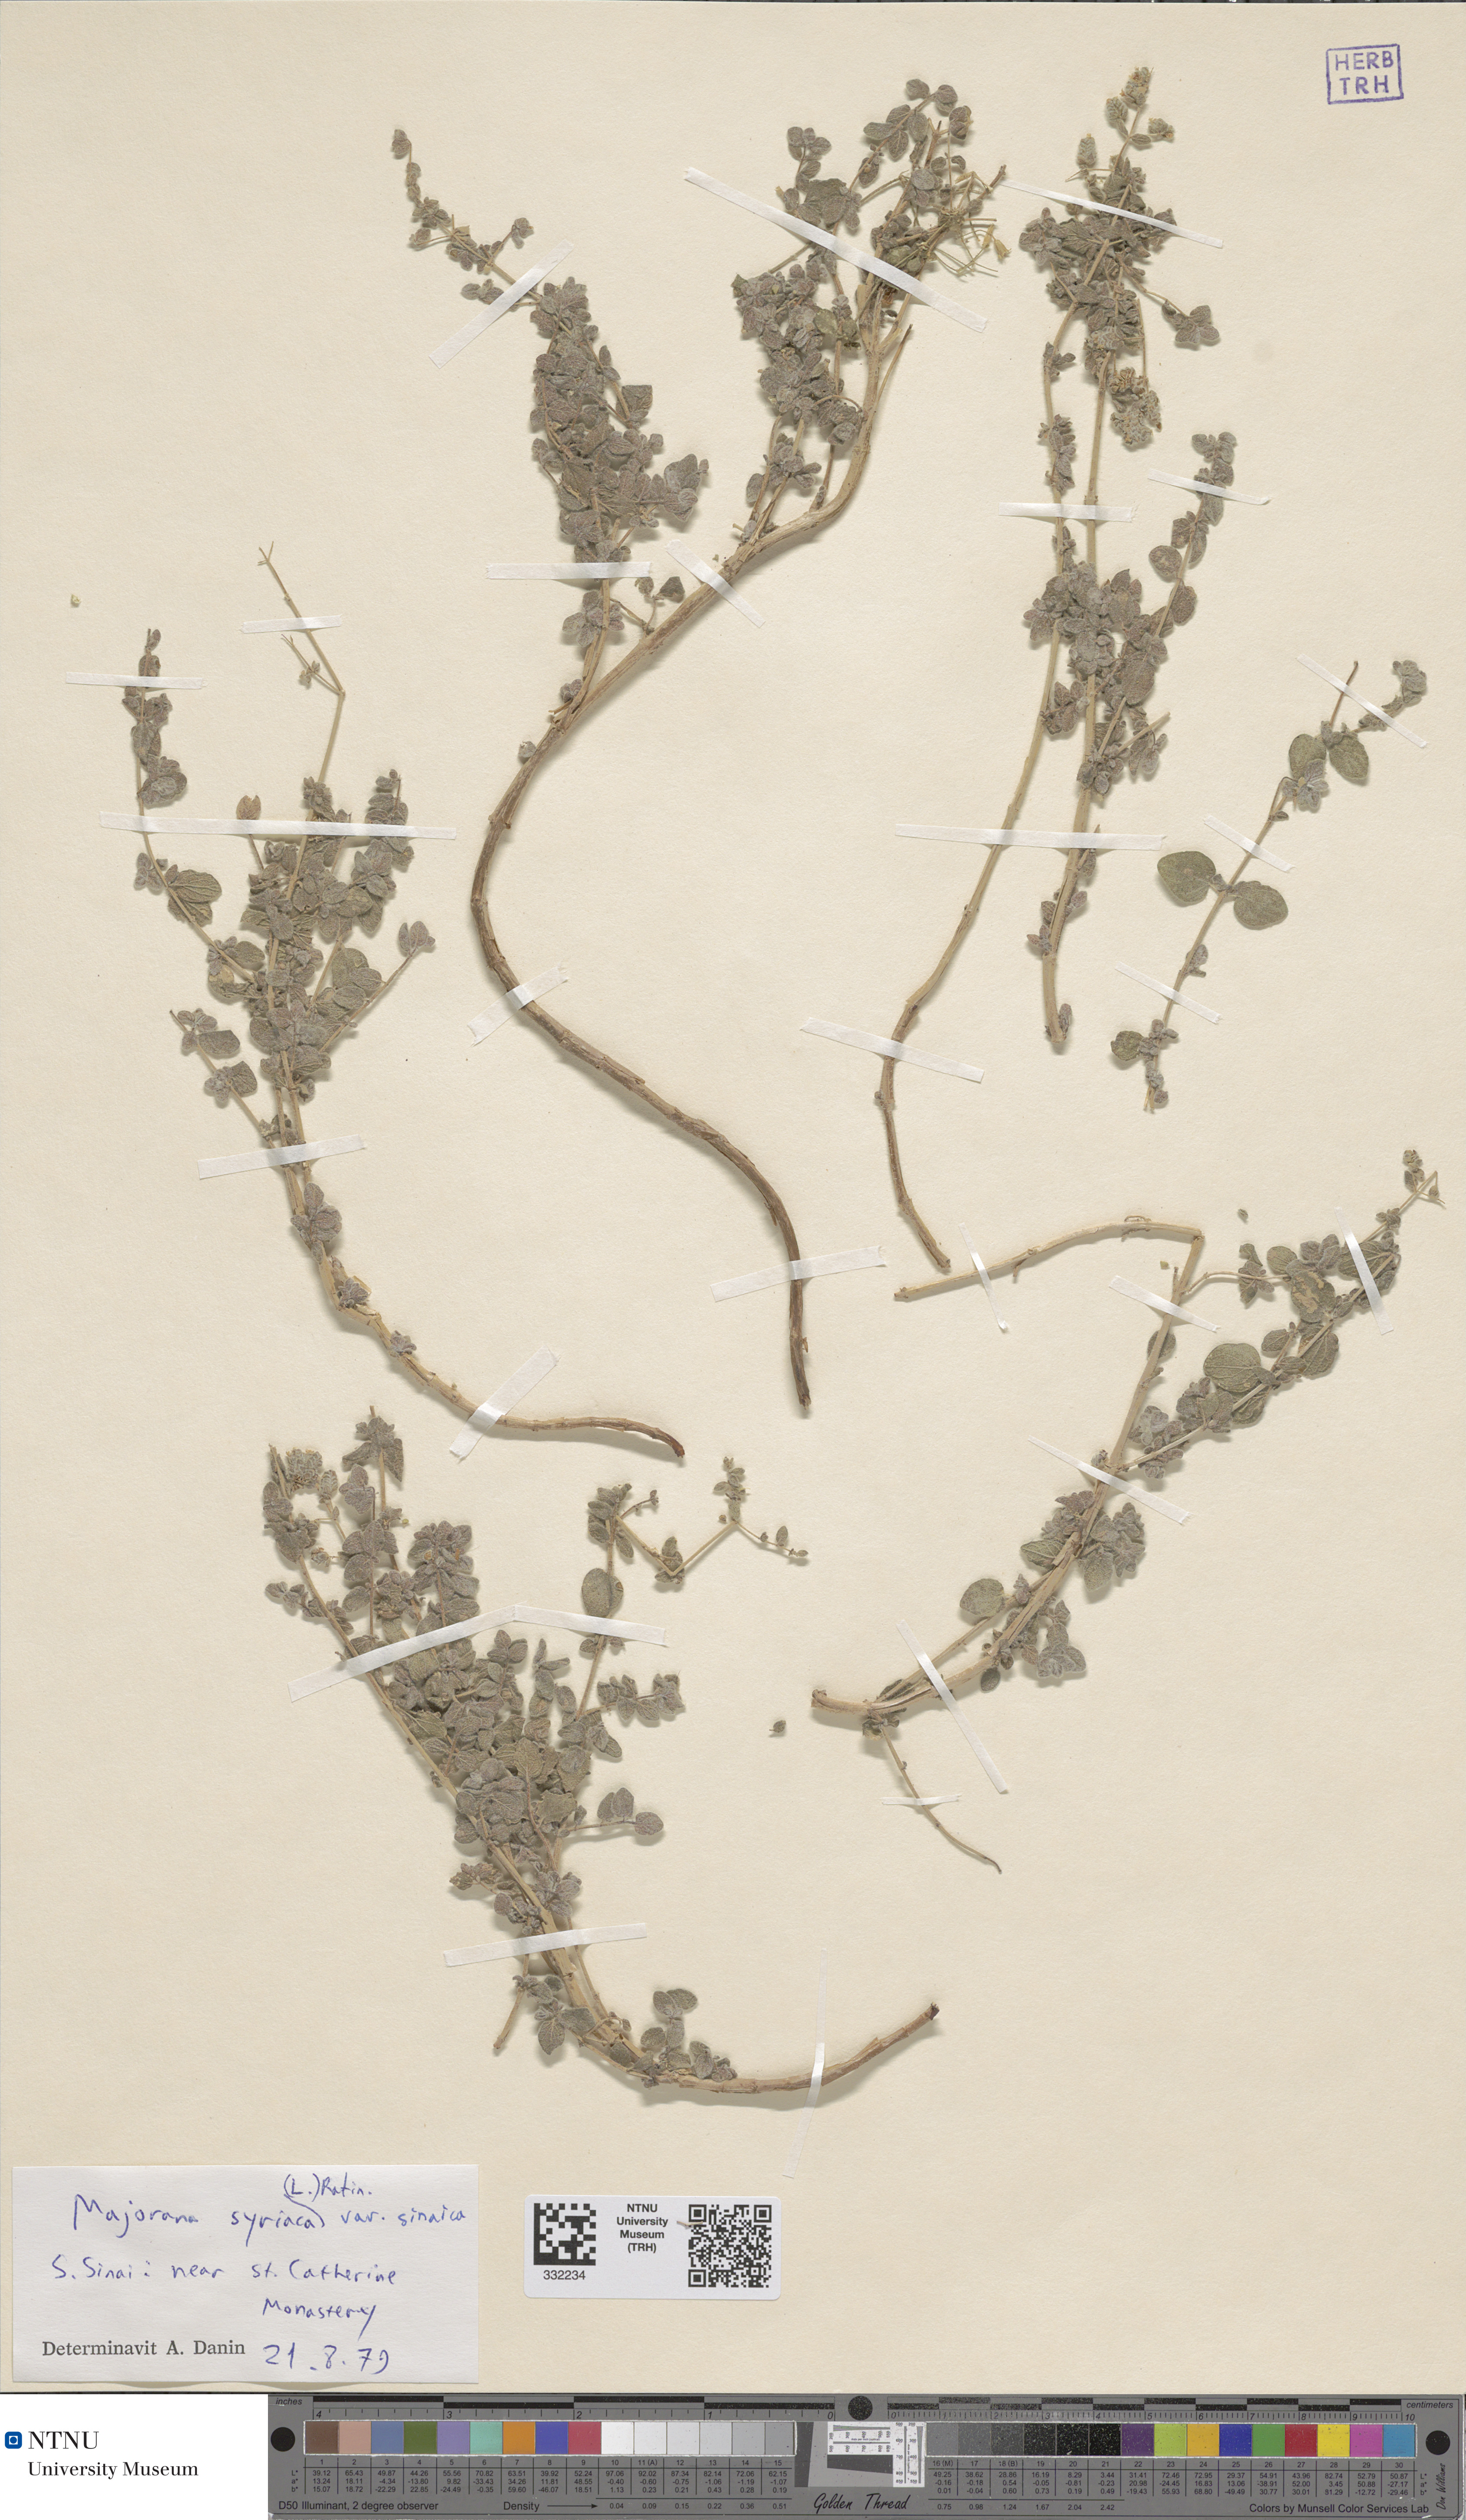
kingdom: Plantae
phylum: Tracheophyta
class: Magnoliopsida
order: Lamiales
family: Lamiaceae
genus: Origanum
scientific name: Origanum syriacum
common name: Biblical-hyssop
